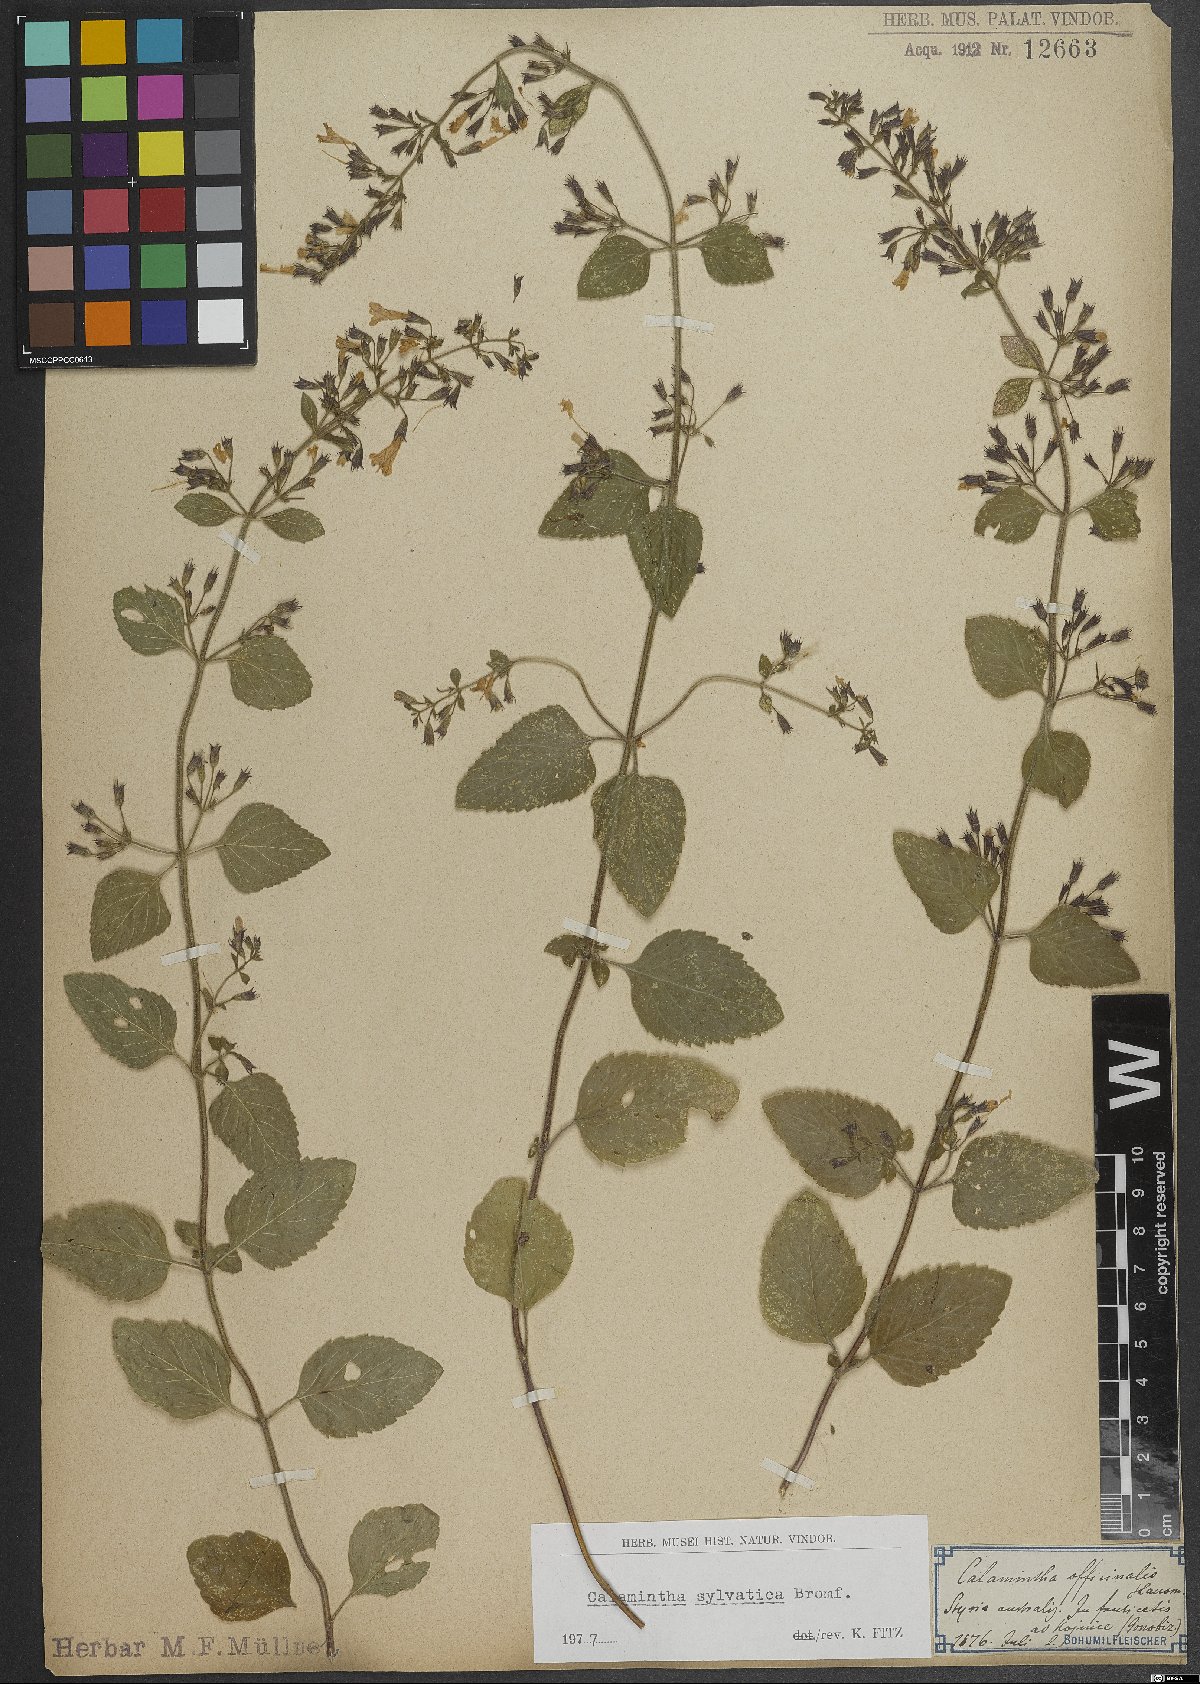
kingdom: Plantae
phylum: Tracheophyta
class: Magnoliopsida
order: Lamiales
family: Lamiaceae
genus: Clinopodium
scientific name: Clinopodium menthifolium
